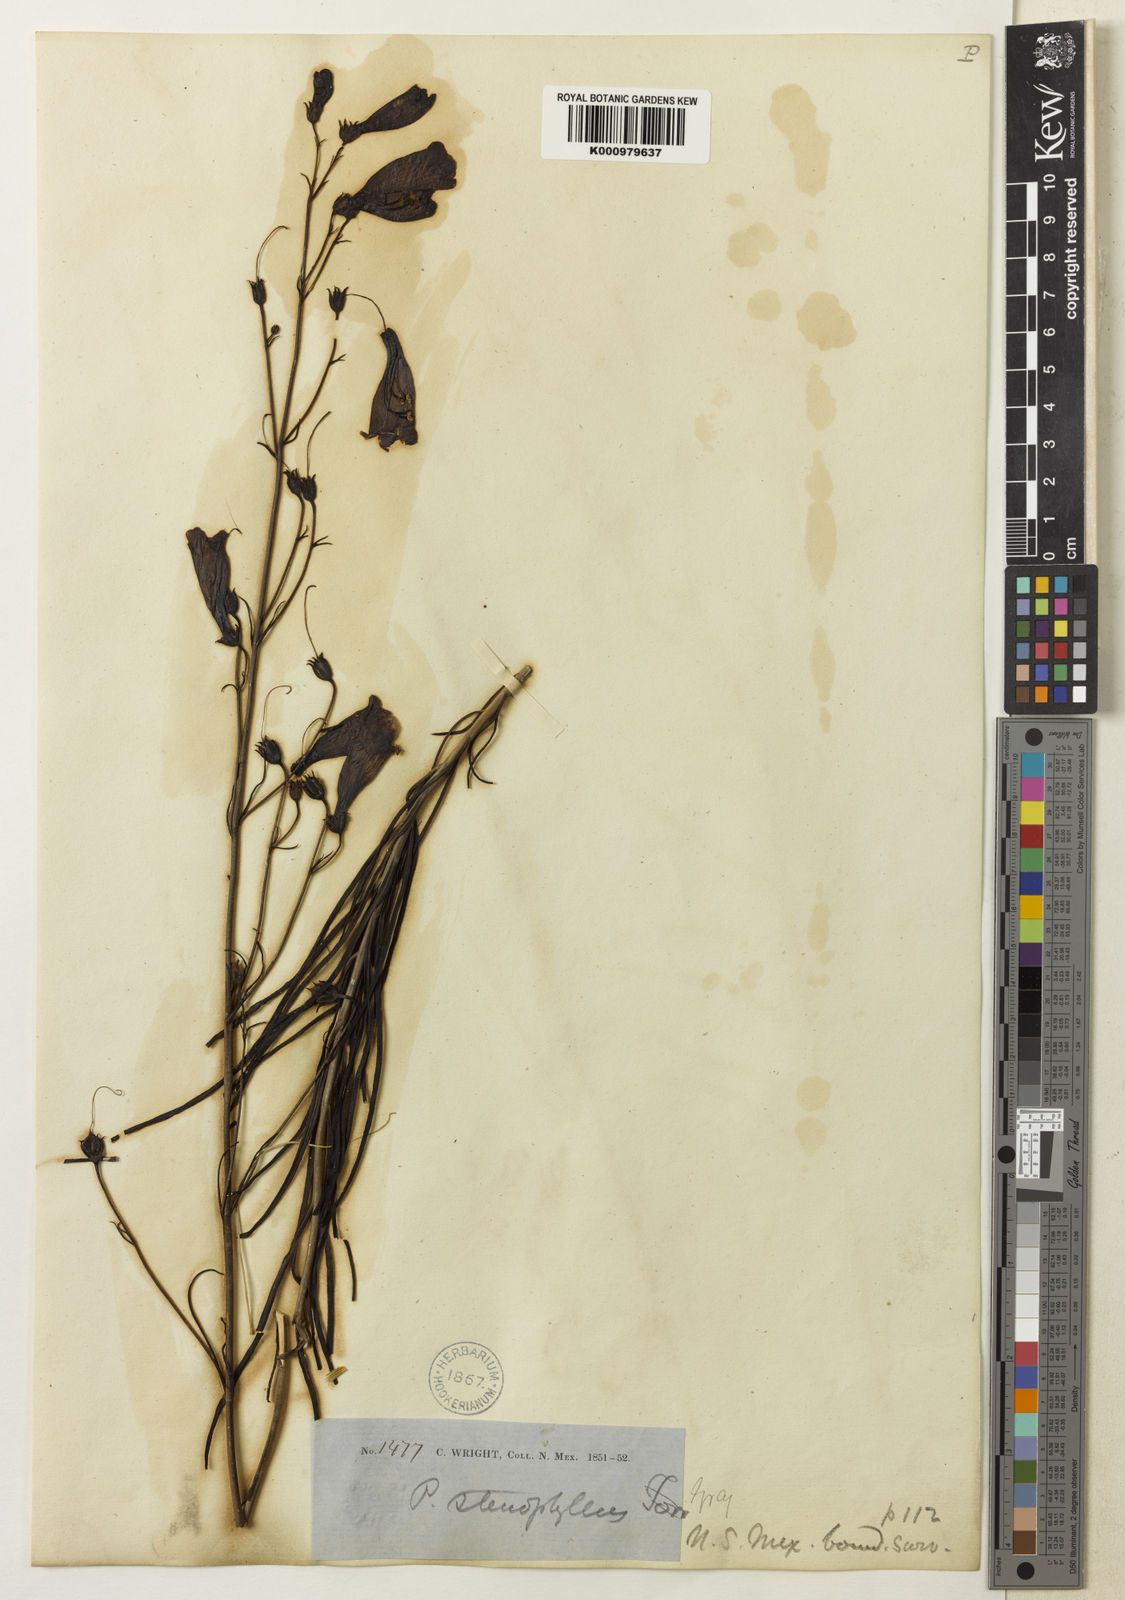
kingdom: Plantae
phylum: Tracheophyta
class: Magnoliopsida
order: Lamiales
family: Plantaginaceae
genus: Penstemon
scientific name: Penstemon stenophyllus
